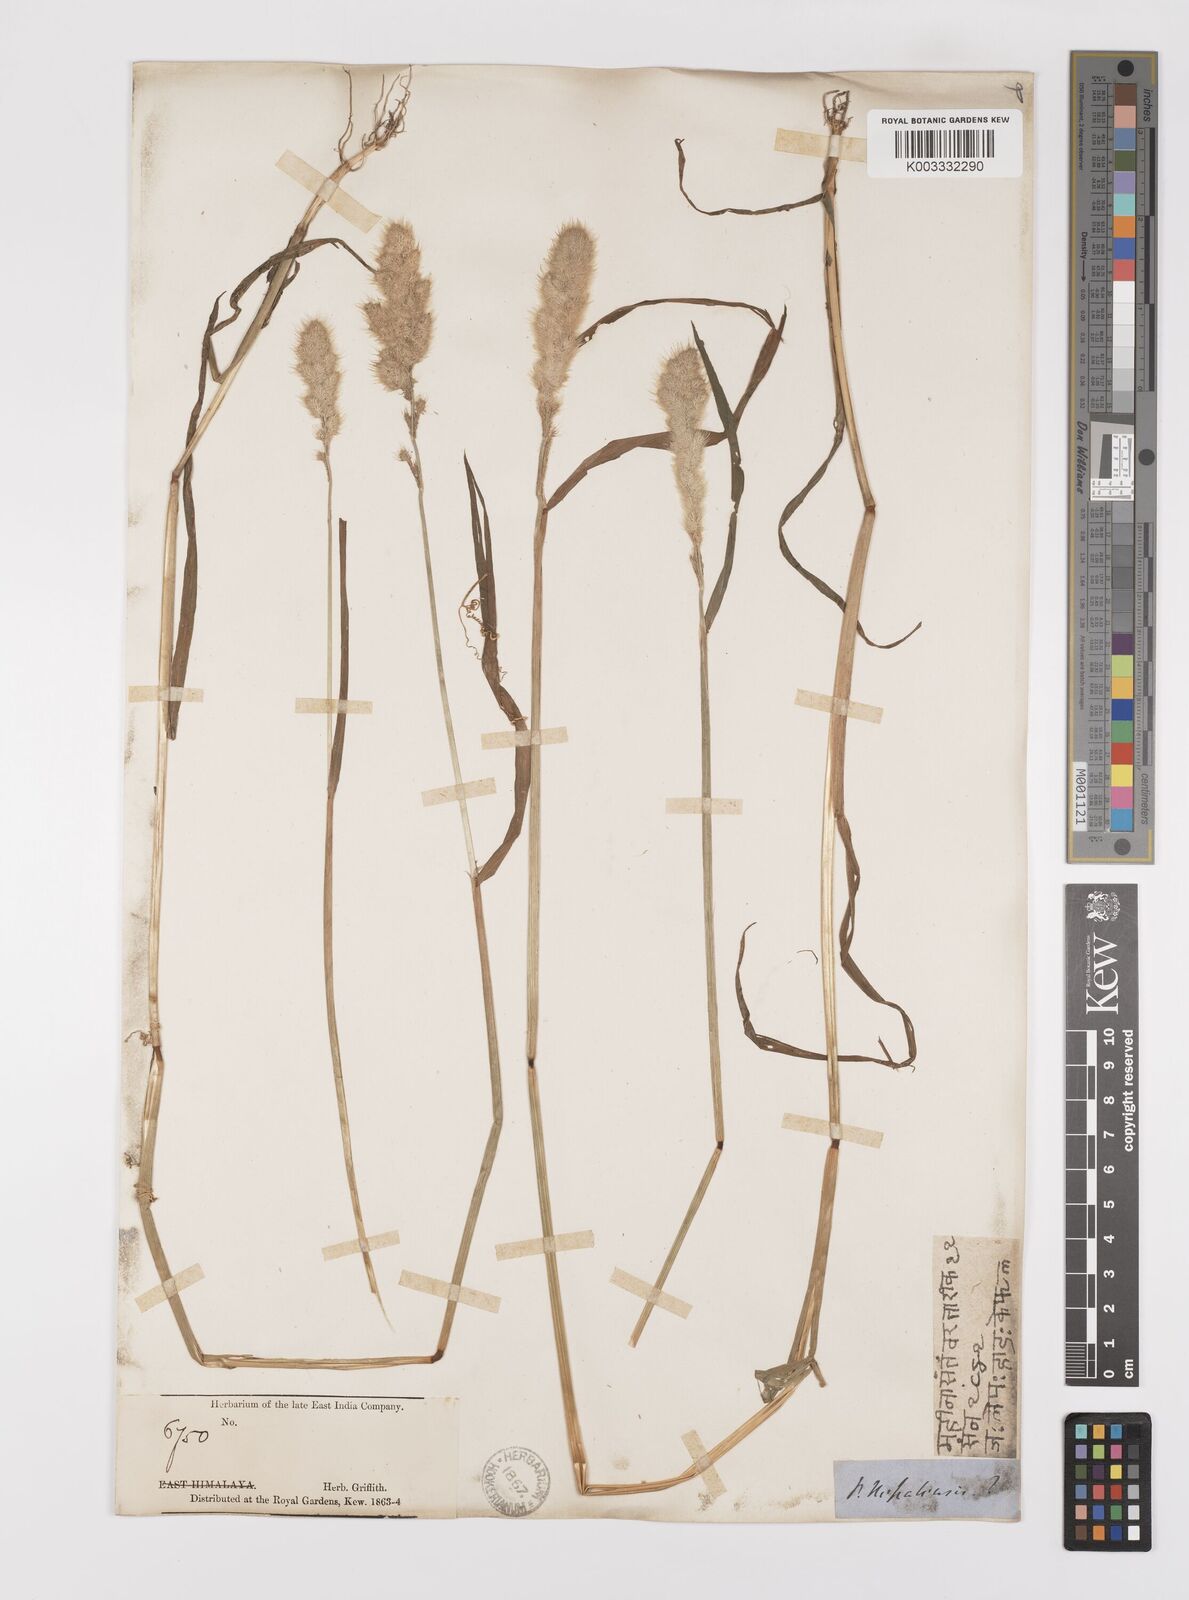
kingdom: Plantae
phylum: Tracheophyta
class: Liliopsida
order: Poales
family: Poaceae
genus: Polypogon
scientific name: Polypogon monspeliensis
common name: Annual rabbitsfoot grass
